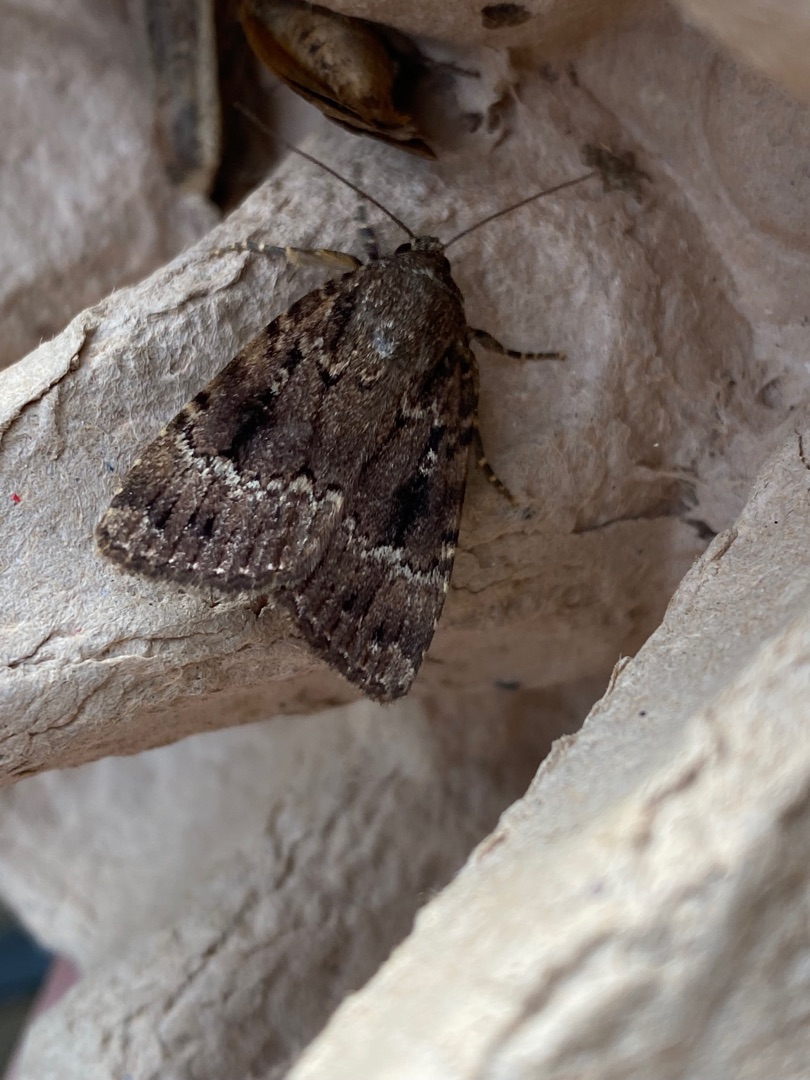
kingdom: Animalia
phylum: Arthropoda
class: Insecta
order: Lepidoptera
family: Noctuidae
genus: Amphipyra
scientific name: Amphipyra pyramidea
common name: Pyramideugle
